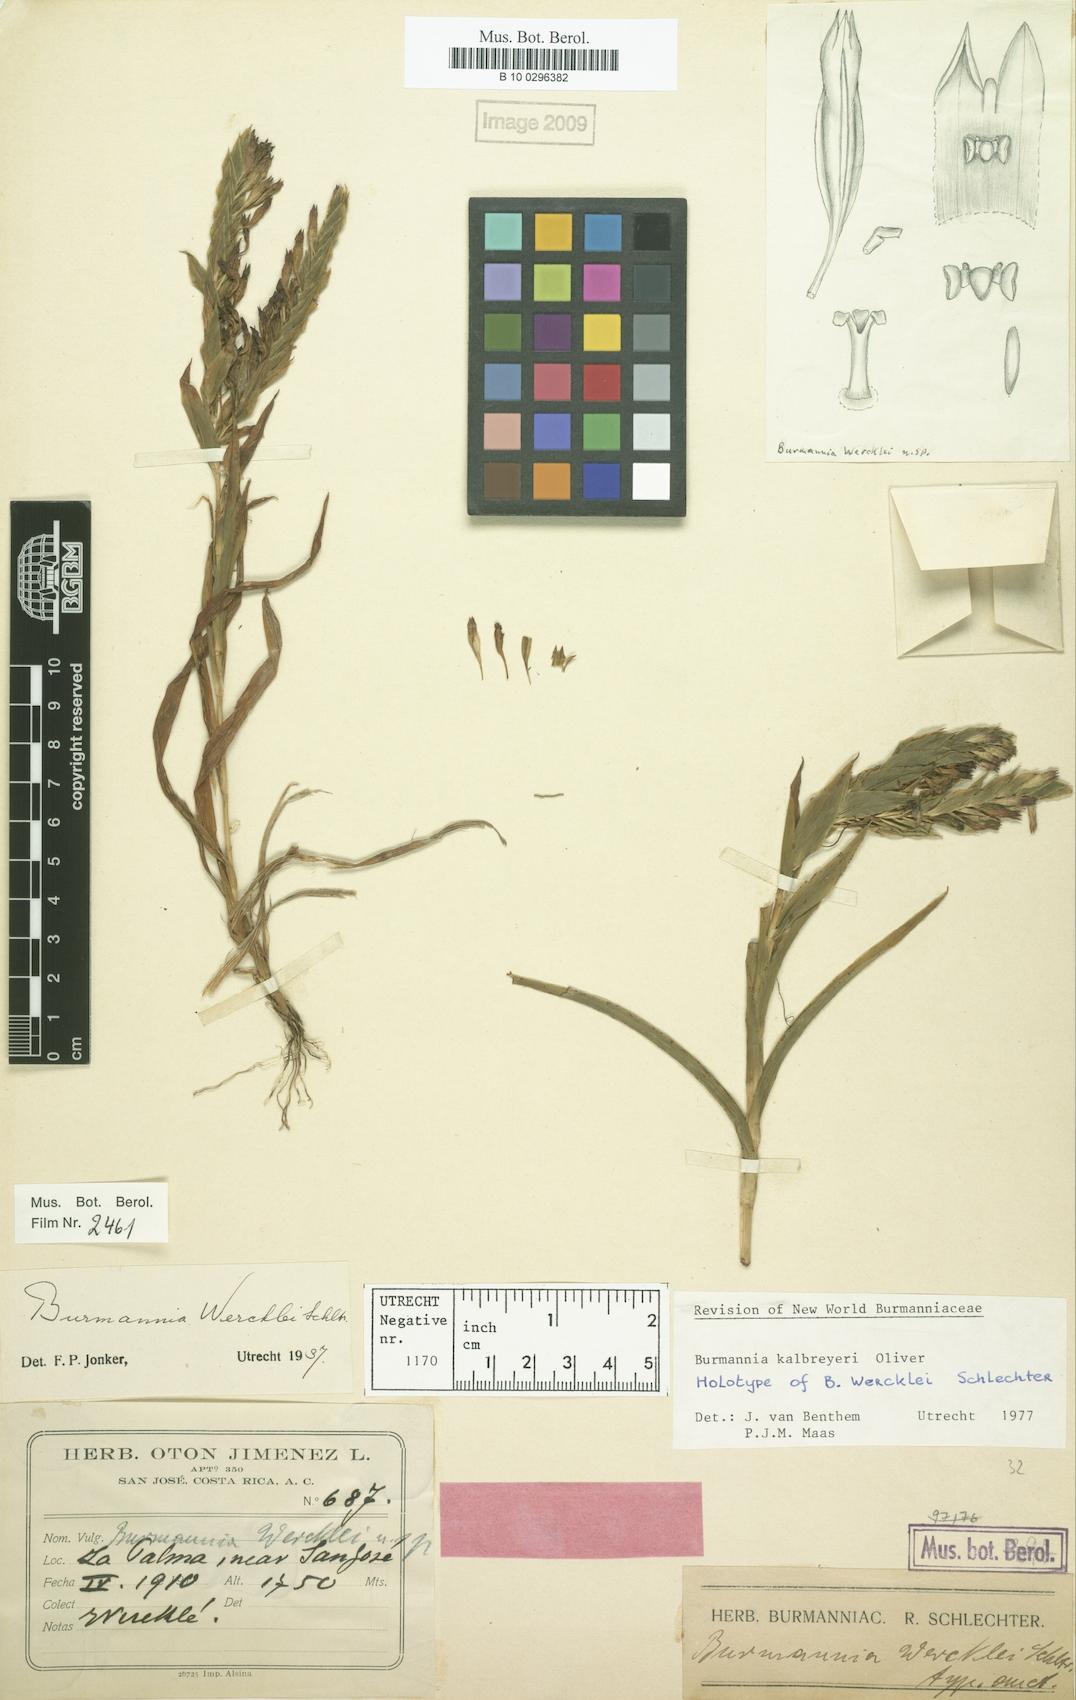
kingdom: Plantae
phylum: Tracheophyta
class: Liliopsida
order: Dioscoreales
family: Burmanniaceae
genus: Burmannia
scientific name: Burmannia kalbreyeri
